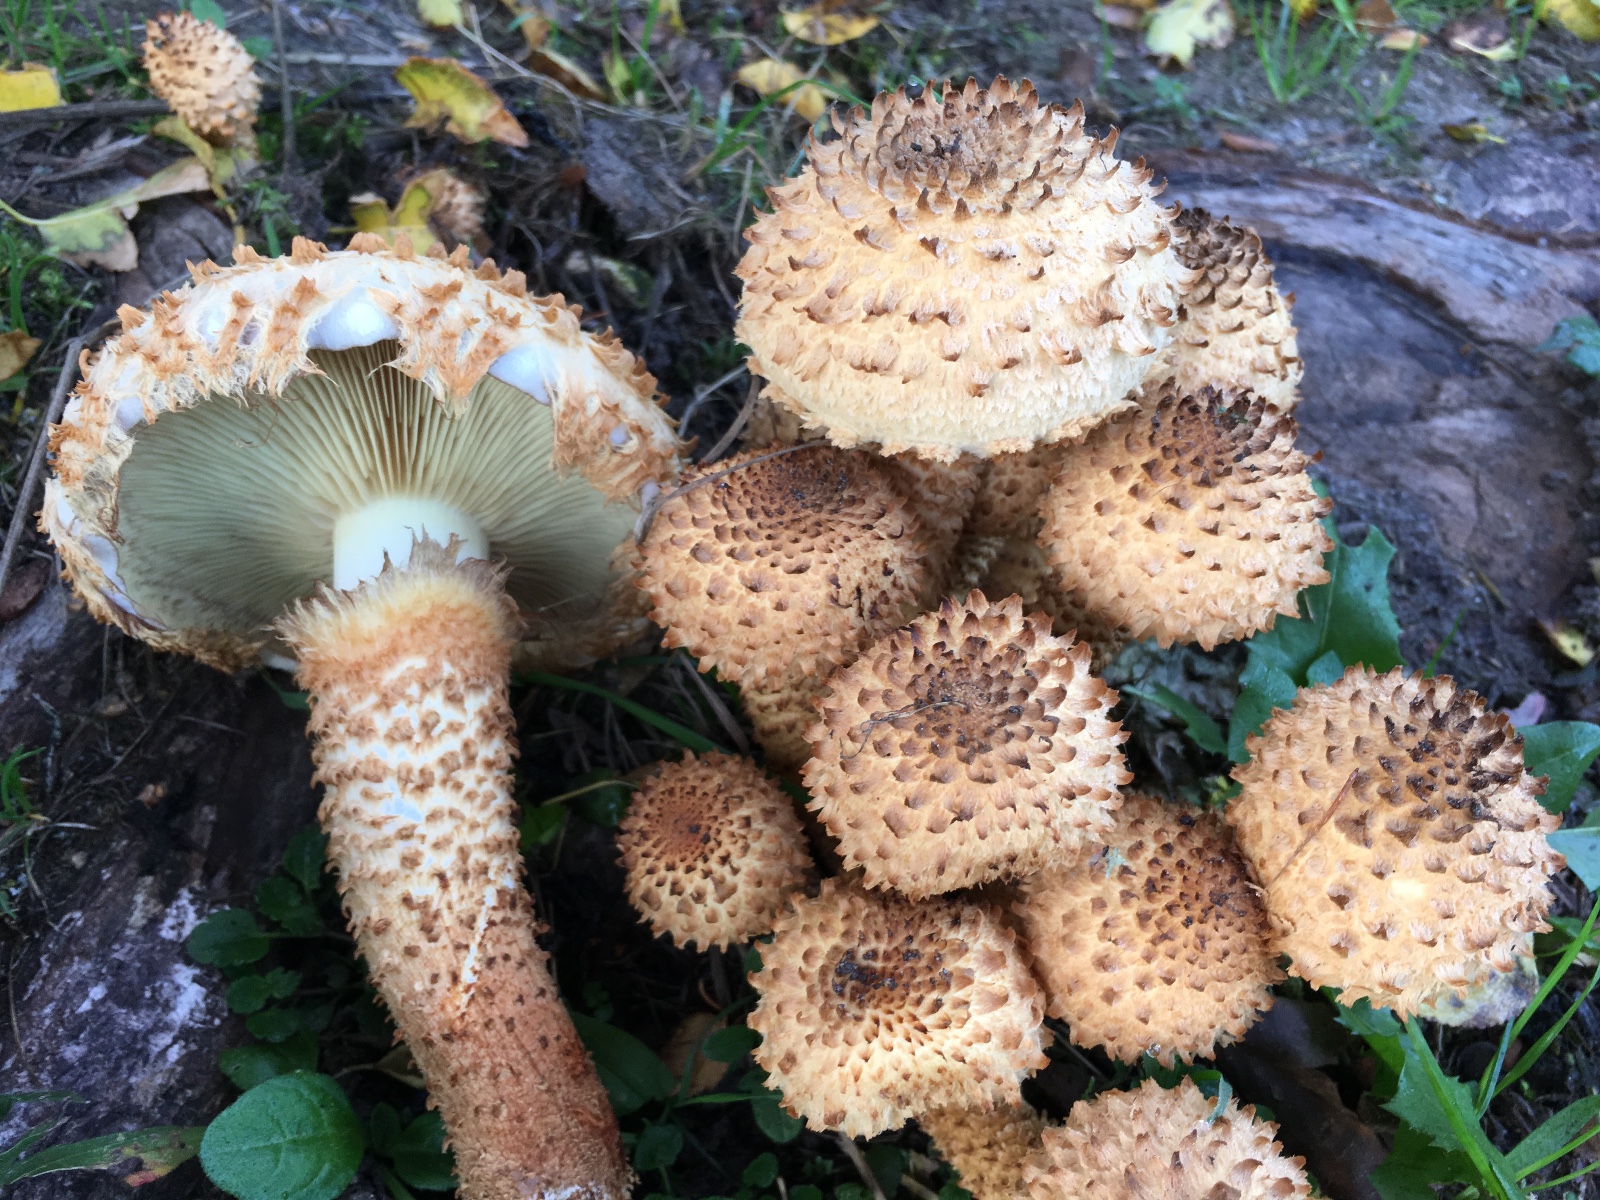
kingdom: Fungi
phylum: Basidiomycota
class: Agaricomycetes
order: Agaricales
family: Strophariaceae
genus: Pholiota
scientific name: Pholiota squarrosa
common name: krumskællet skælhat
